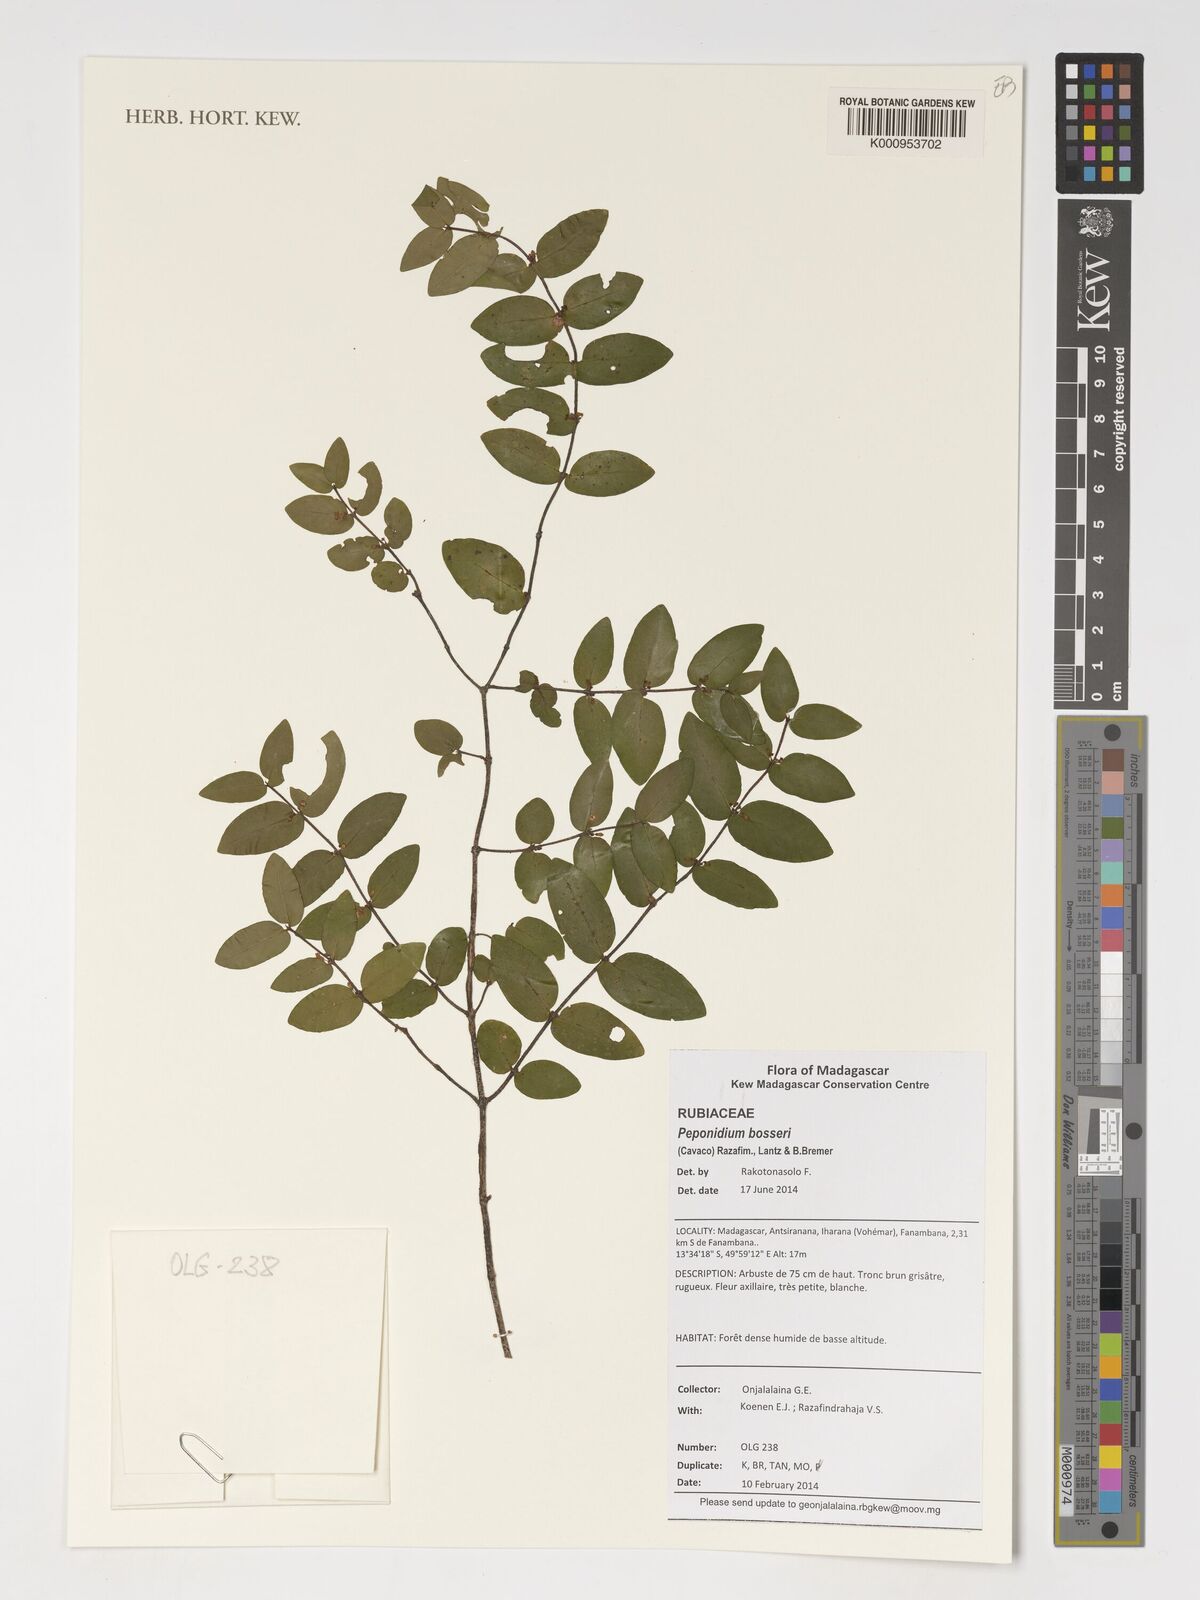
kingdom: Plantae
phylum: Tracheophyta
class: Magnoliopsida
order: Gentianales
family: Rubiaceae
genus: Peponidium
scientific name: Peponidium bosseri
